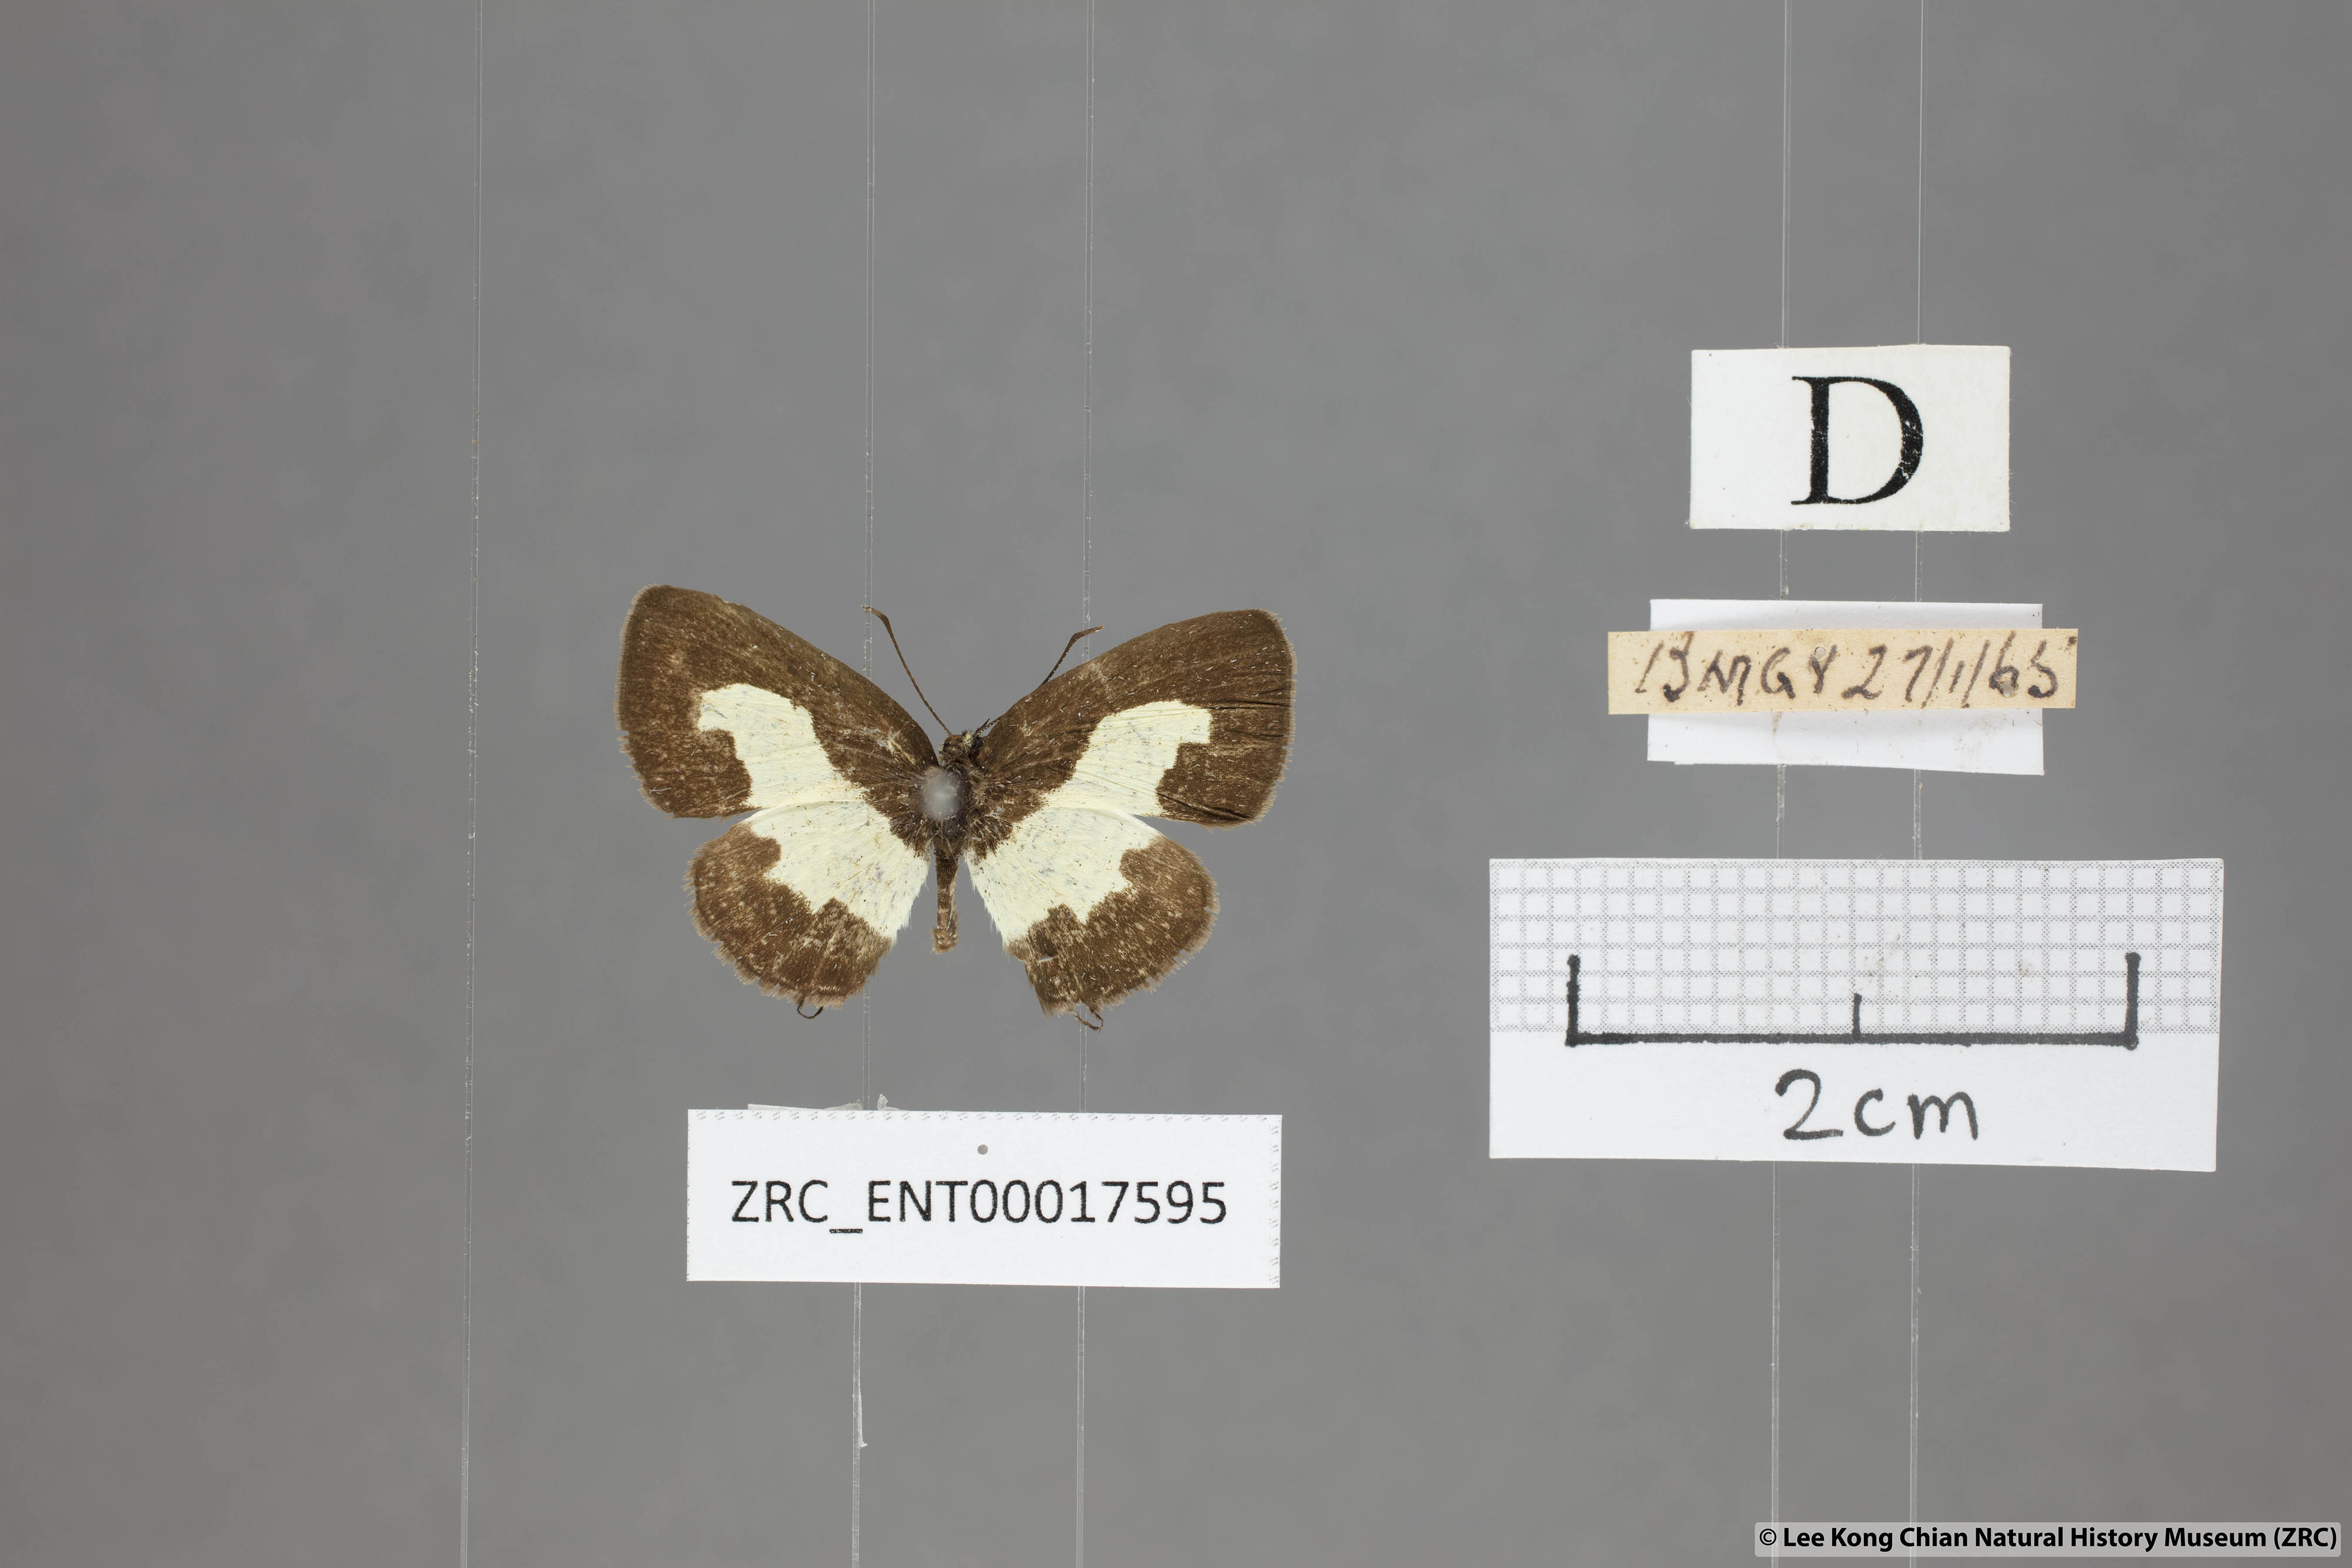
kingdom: Animalia
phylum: Arthropoda
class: Insecta
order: Lepidoptera
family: Lycaenidae
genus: Caleta
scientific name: Caleta roxus
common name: Straight pierrot
